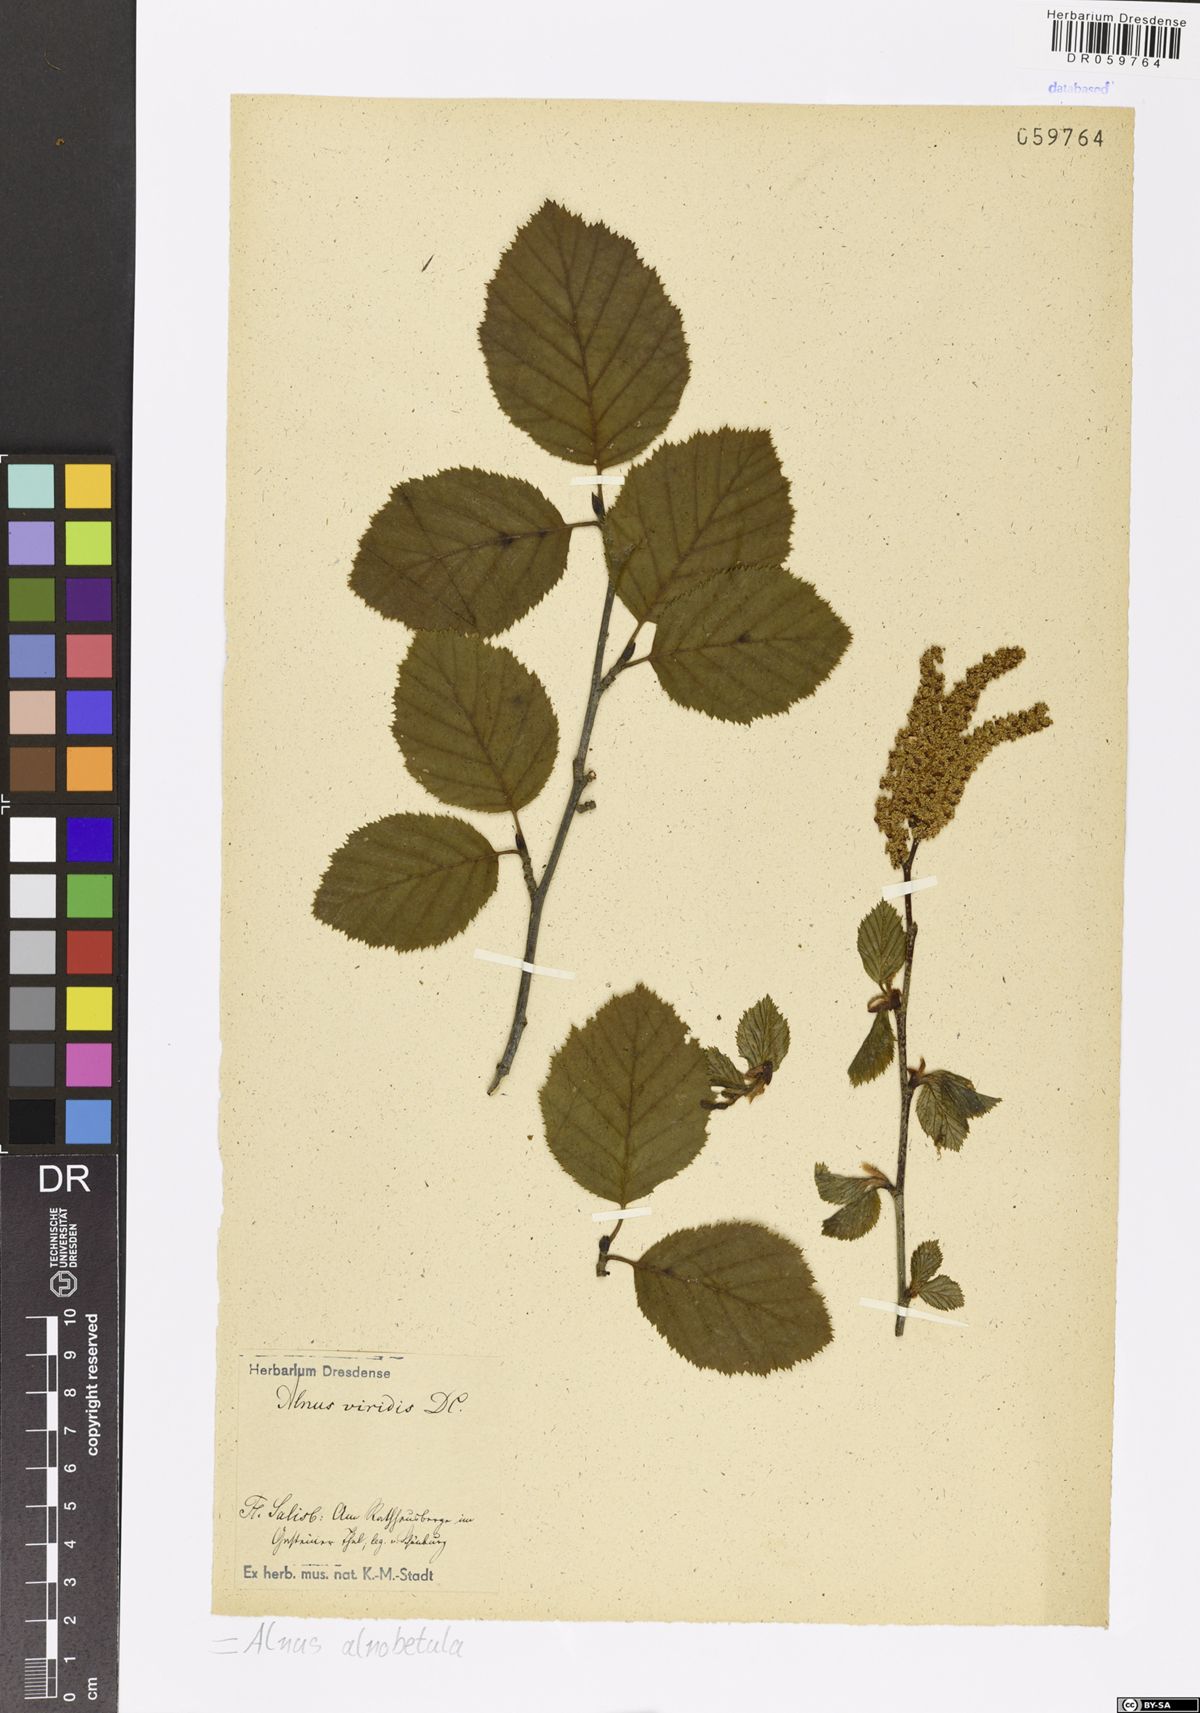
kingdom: Plantae
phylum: Tracheophyta
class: Magnoliopsida
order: Fagales
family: Betulaceae
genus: Alnus
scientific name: Alnus alnobetula
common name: Green alder
